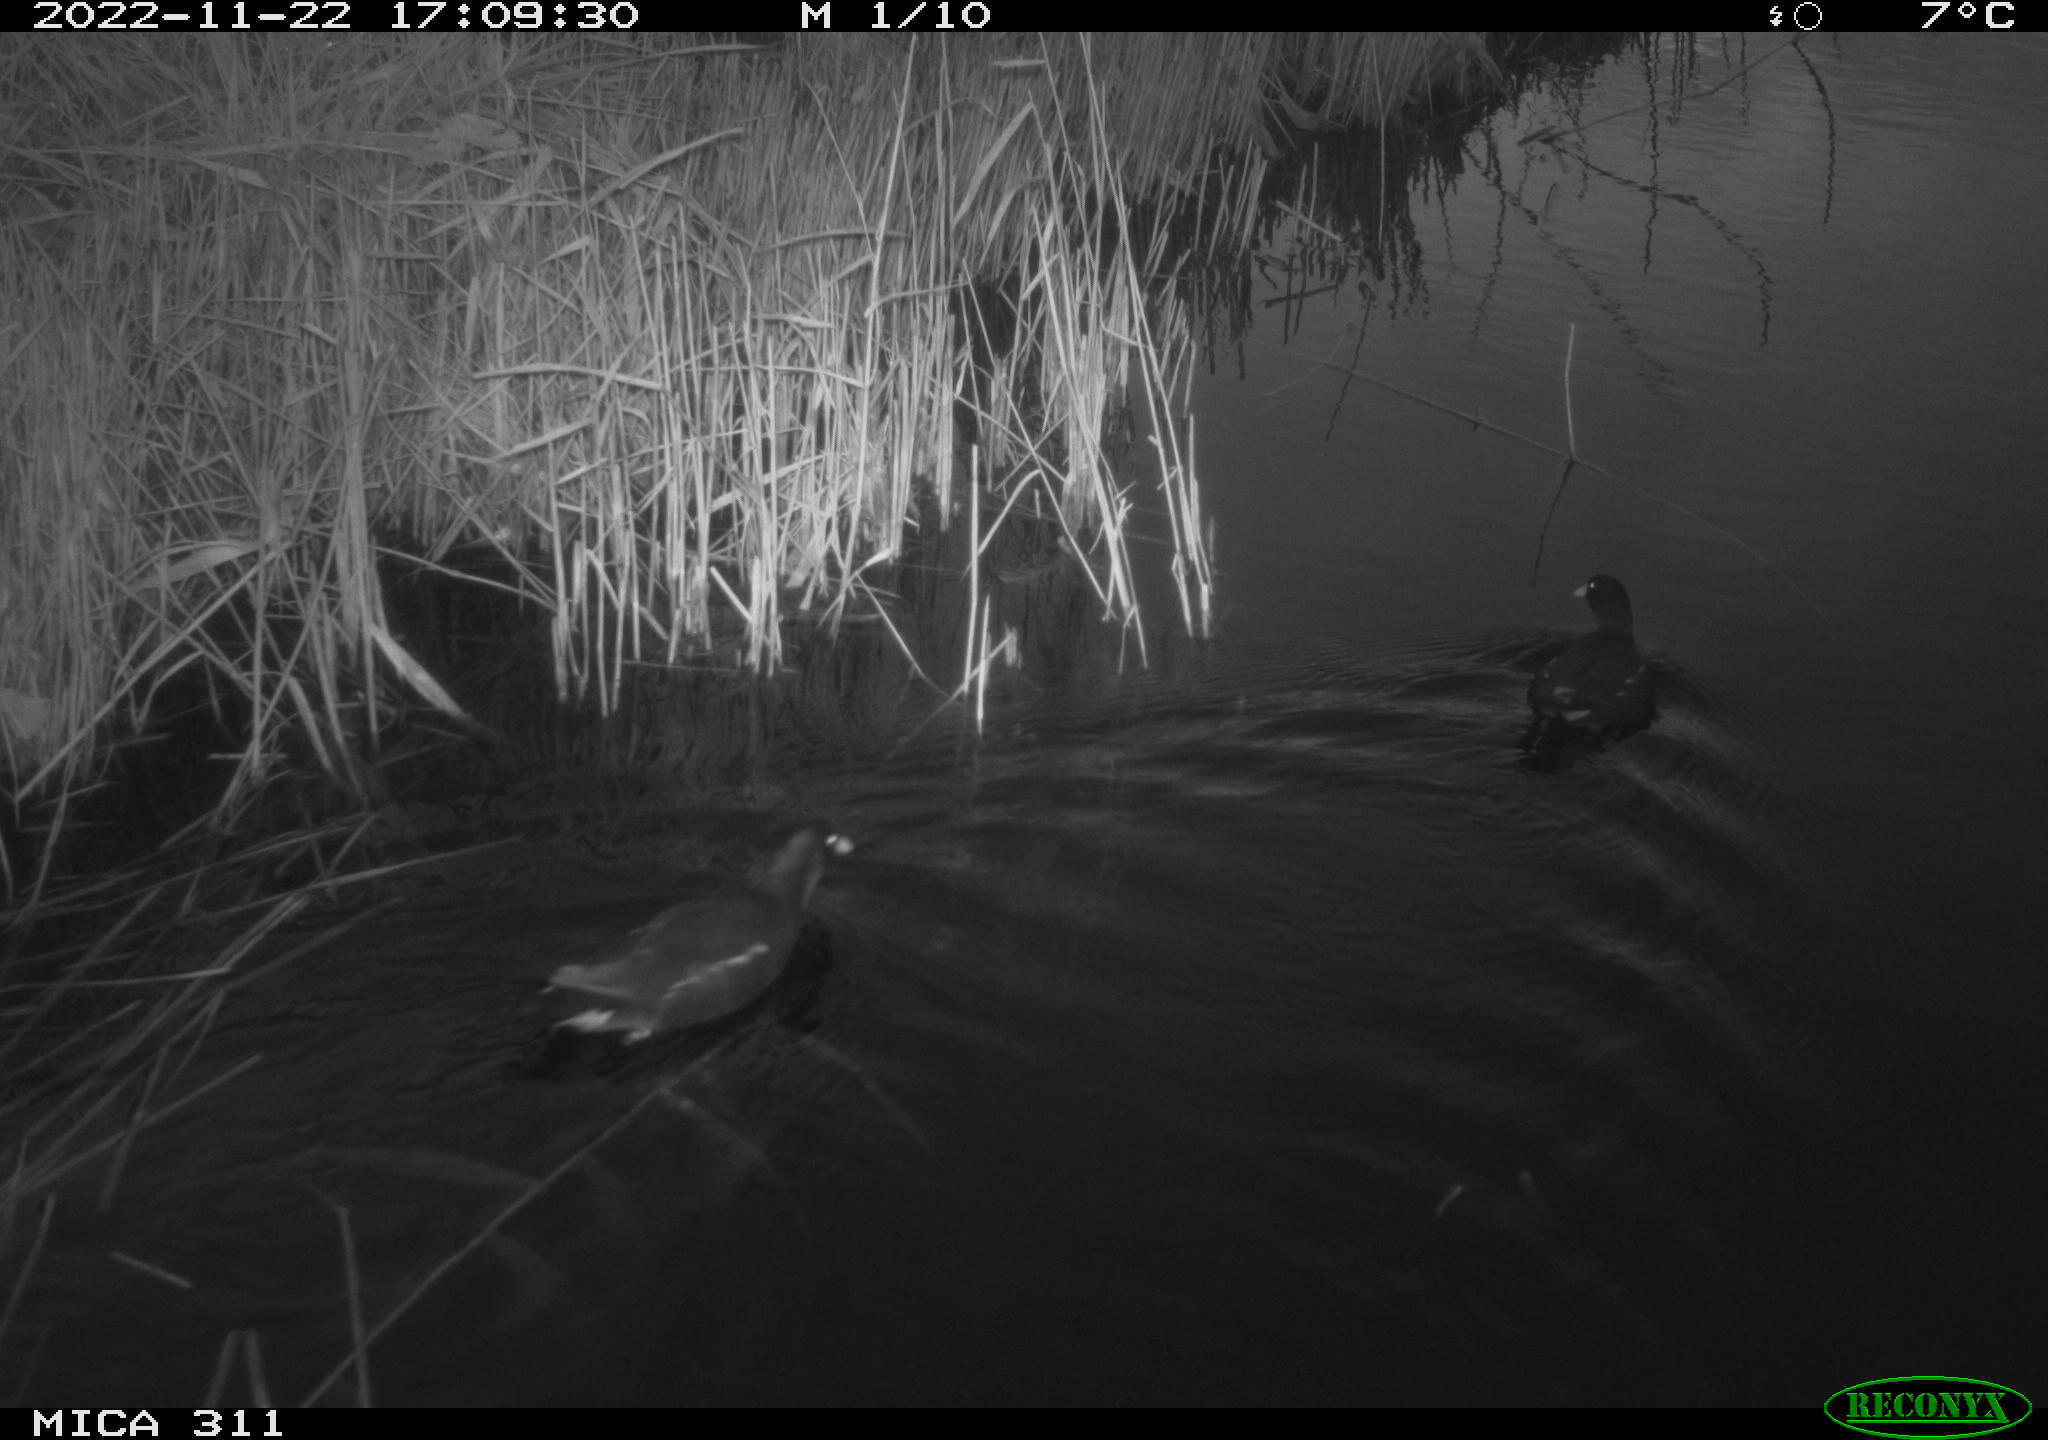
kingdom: Animalia
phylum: Chordata
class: Aves
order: Gruiformes
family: Rallidae
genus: Gallinula
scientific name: Gallinula chloropus
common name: Common moorhen
